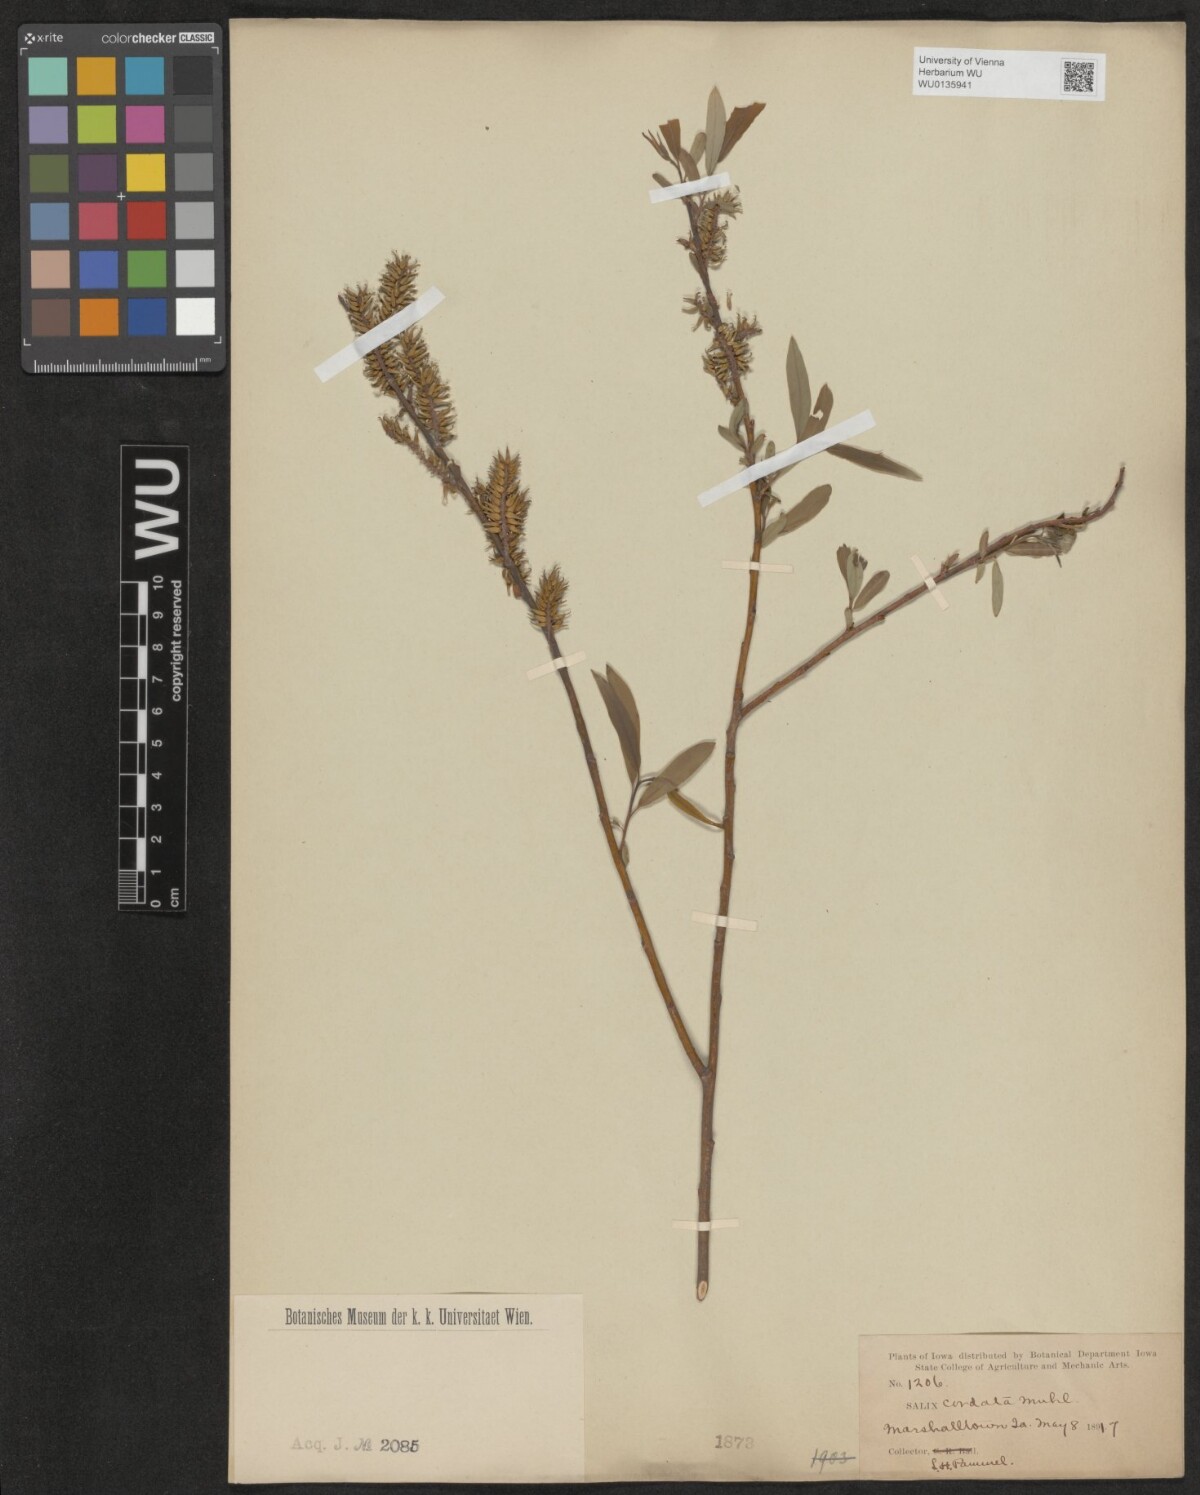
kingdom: Plantae
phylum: Tracheophyta
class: Magnoliopsida
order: Malpighiales
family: Salicaceae
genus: Salix
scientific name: Salix cordata
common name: Heart-leaf willow
